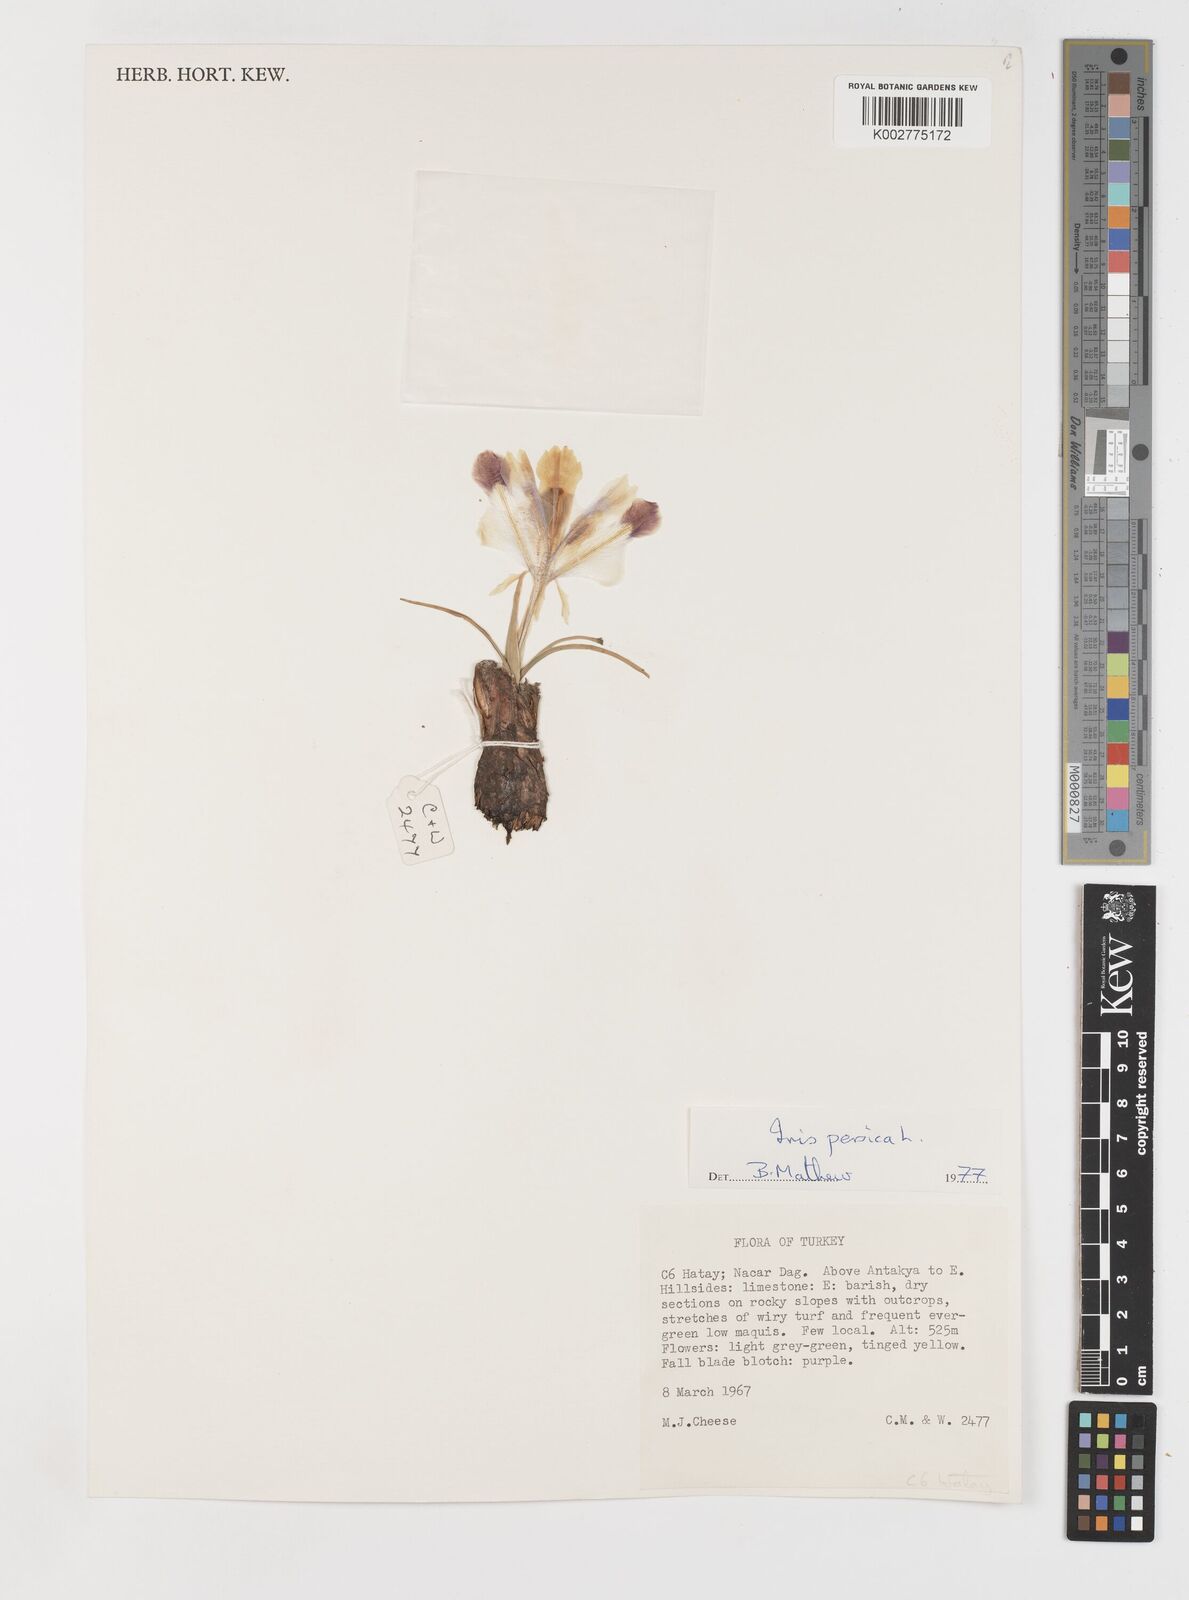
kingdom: Plantae
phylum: Tracheophyta
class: Liliopsida
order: Asparagales
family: Iridaceae
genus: Iris
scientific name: Iris persica
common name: Persian iris
